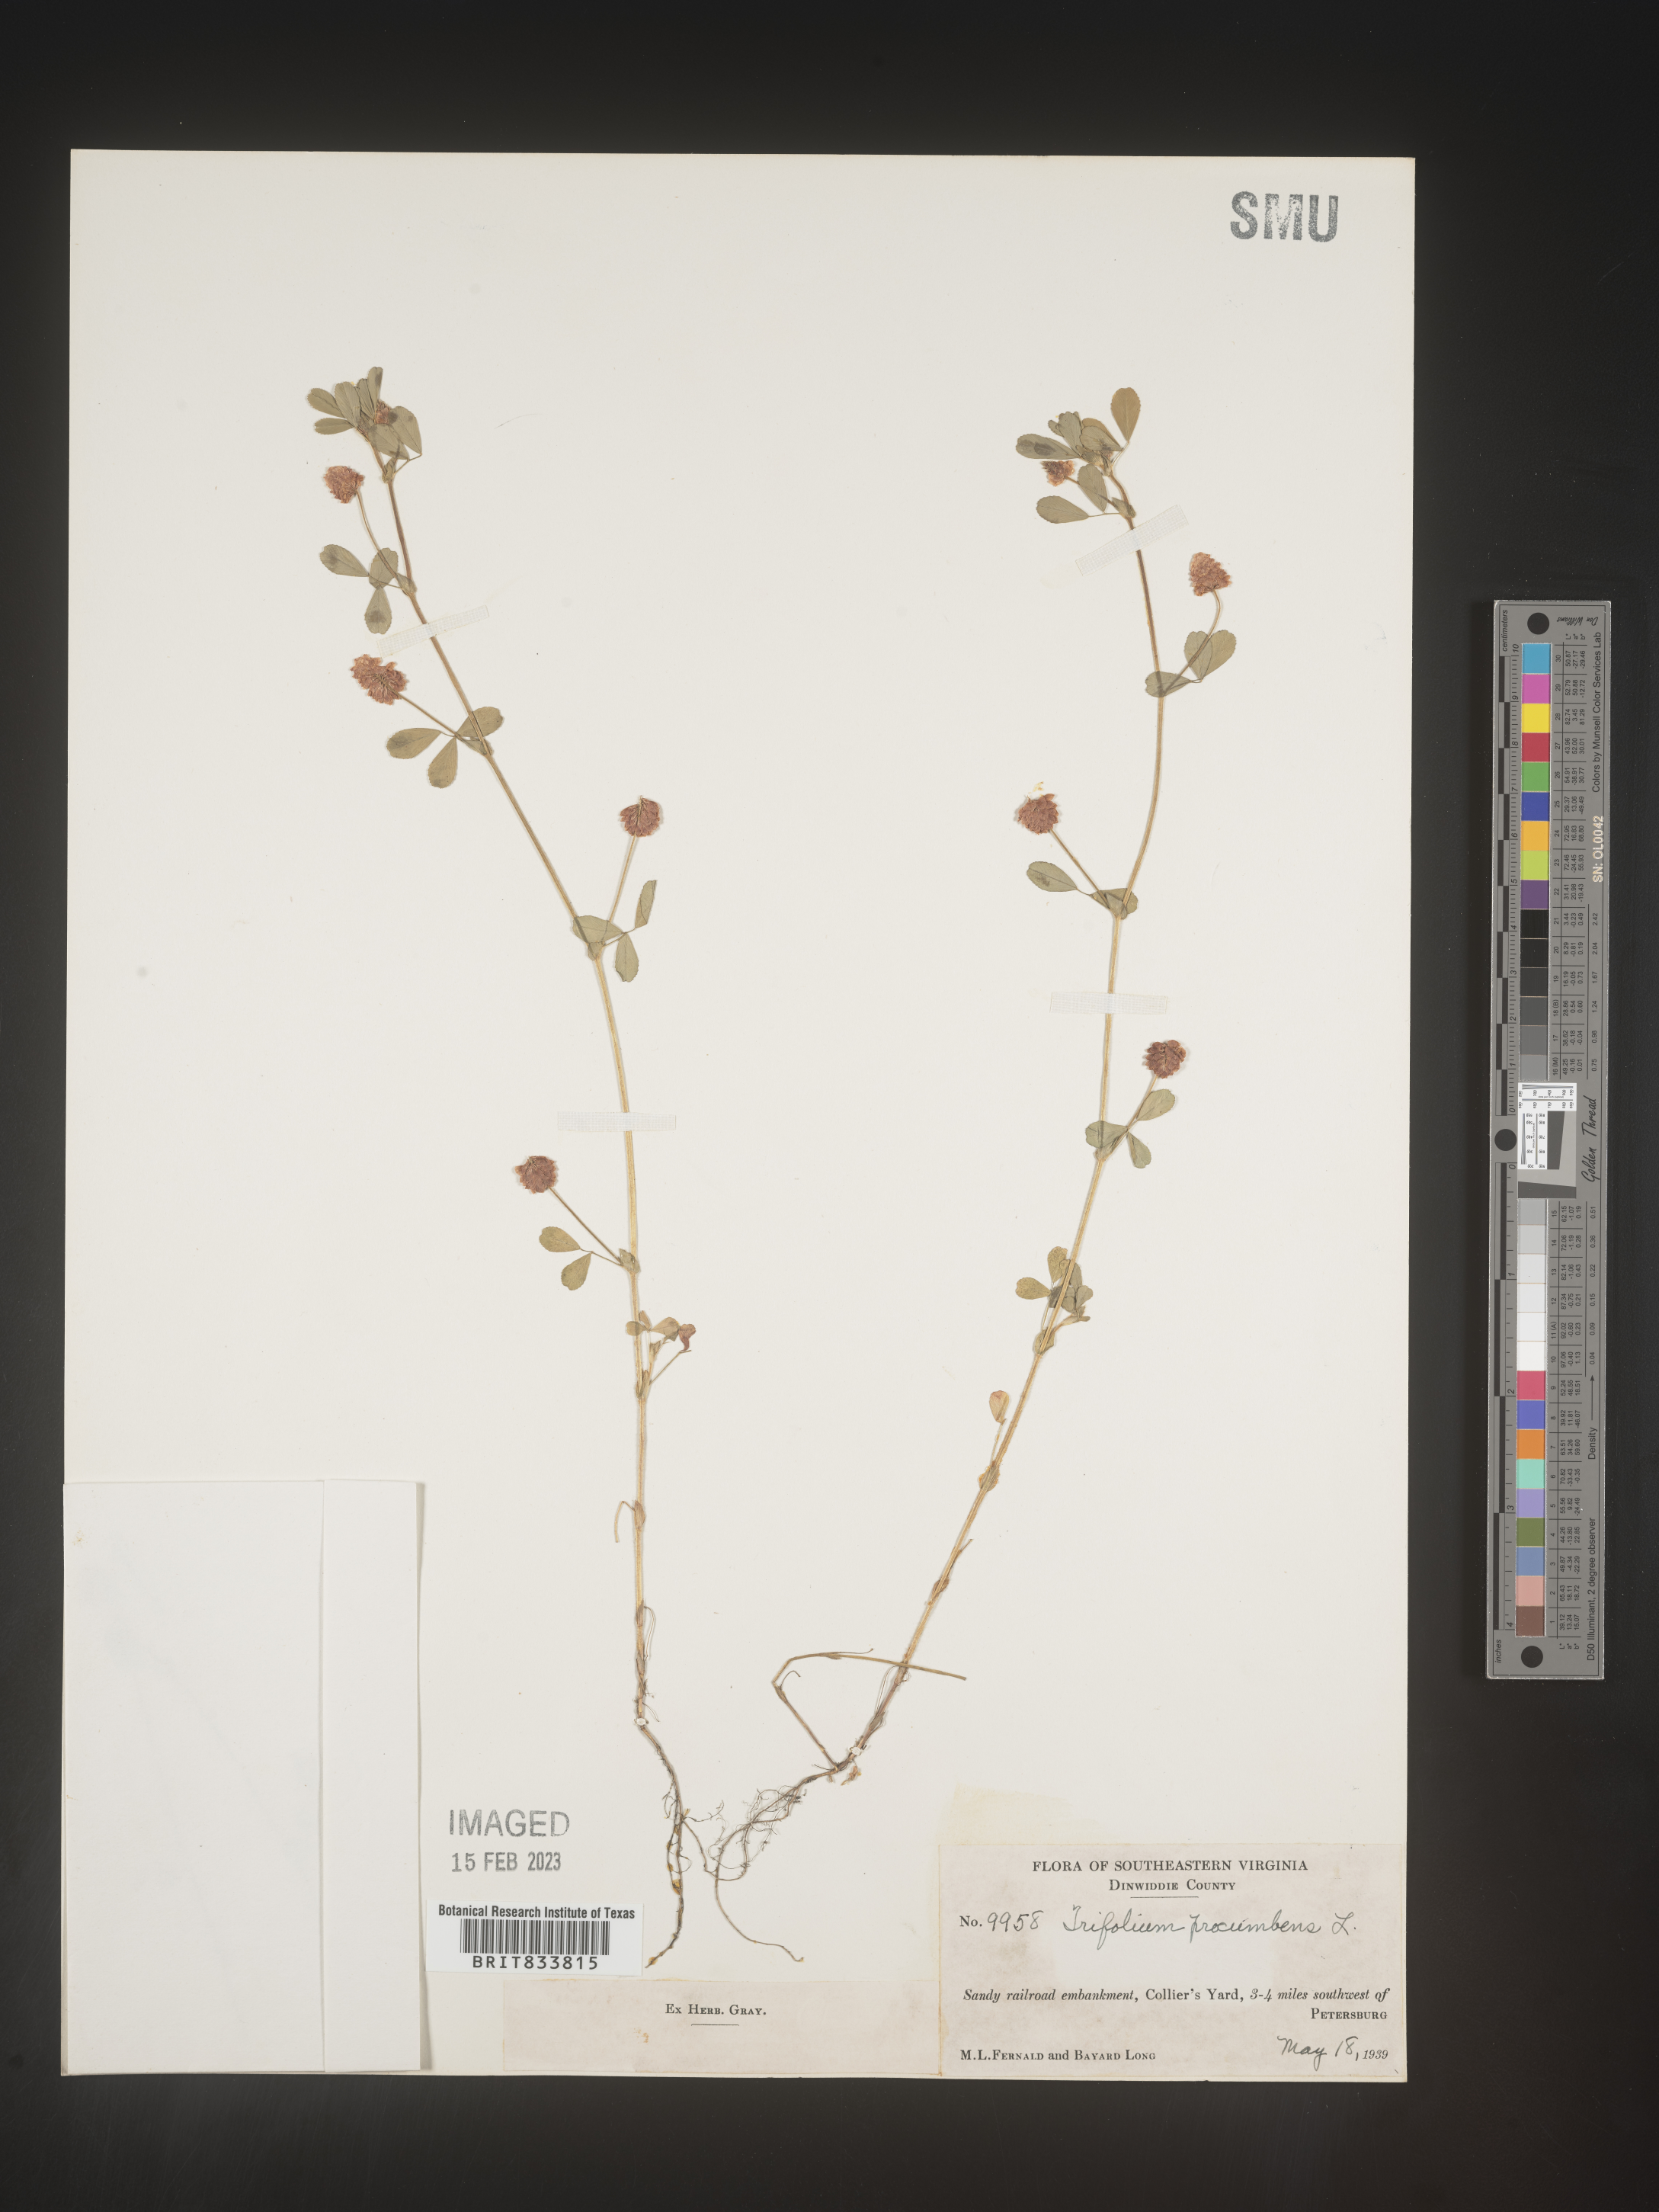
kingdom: Plantae
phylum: Tracheophyta
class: Magnoliopsida
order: Fabales
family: Fabaceae
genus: Trifolium
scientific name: Trifolium campestre
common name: Field clover
